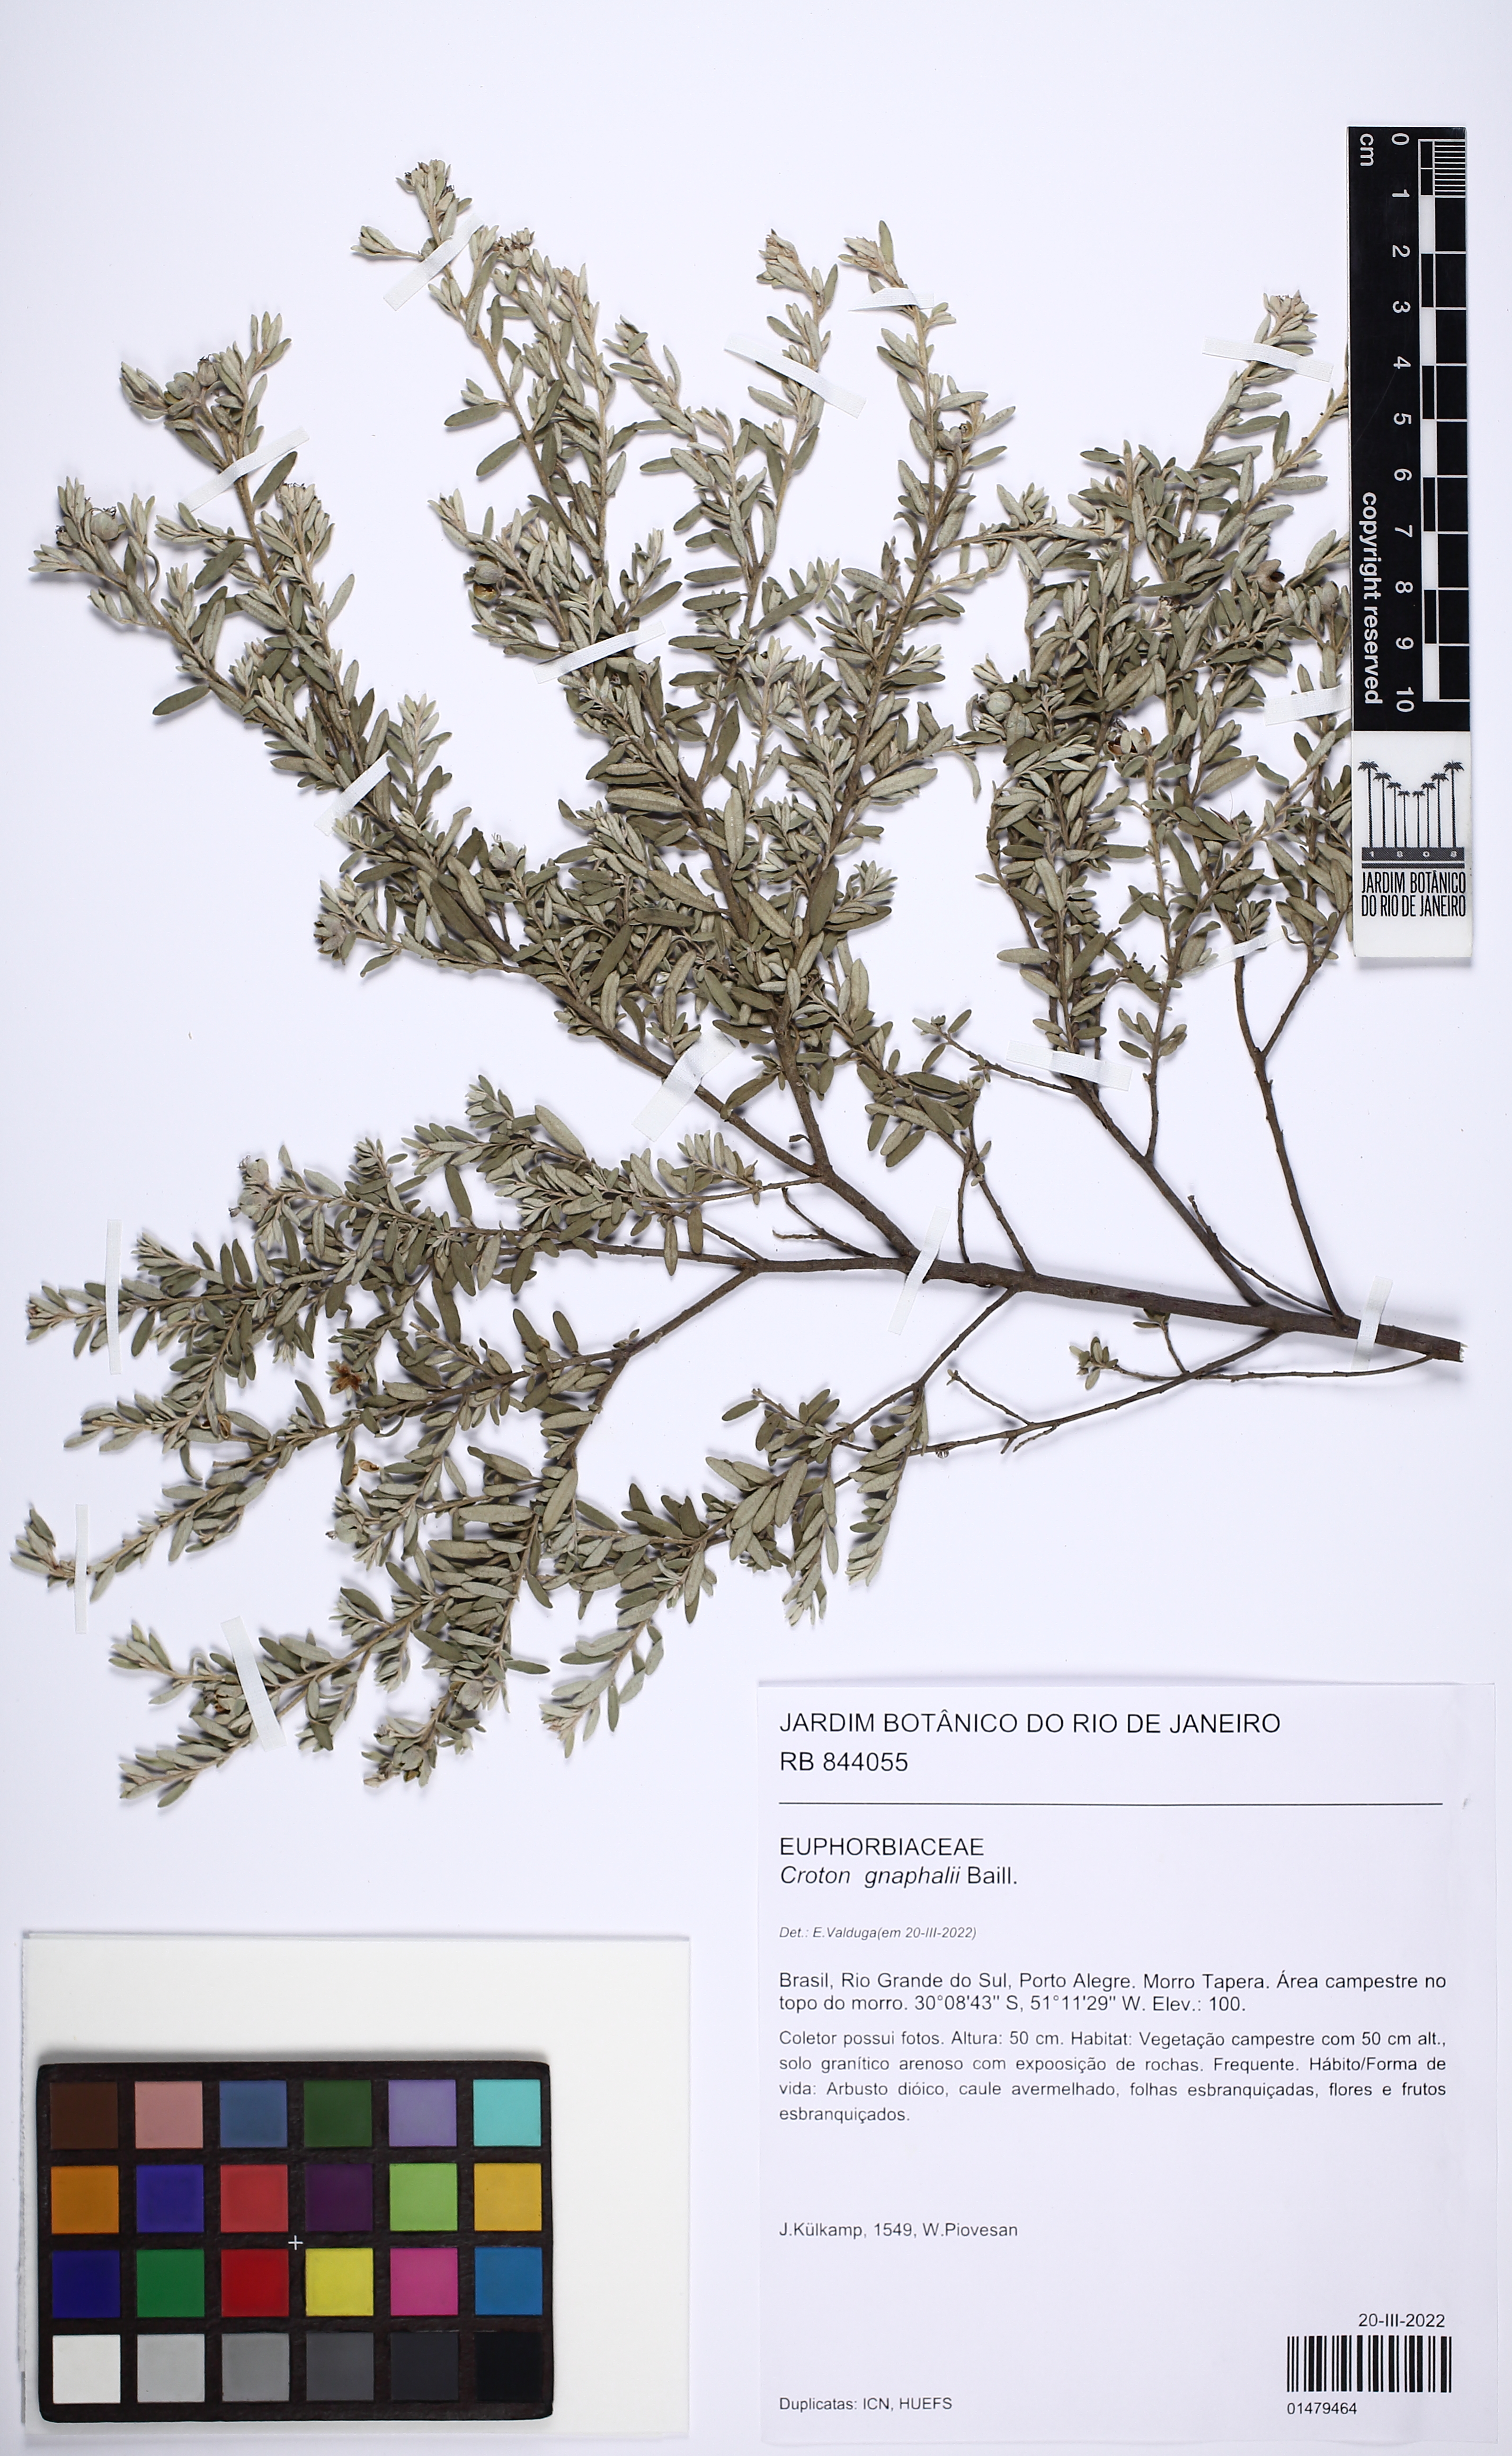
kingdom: Plantae
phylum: Tracheophyta
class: Magnoliopsida
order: Malpighiales
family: Euphorbiaceae
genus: Croton
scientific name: Croton gnaphalii
